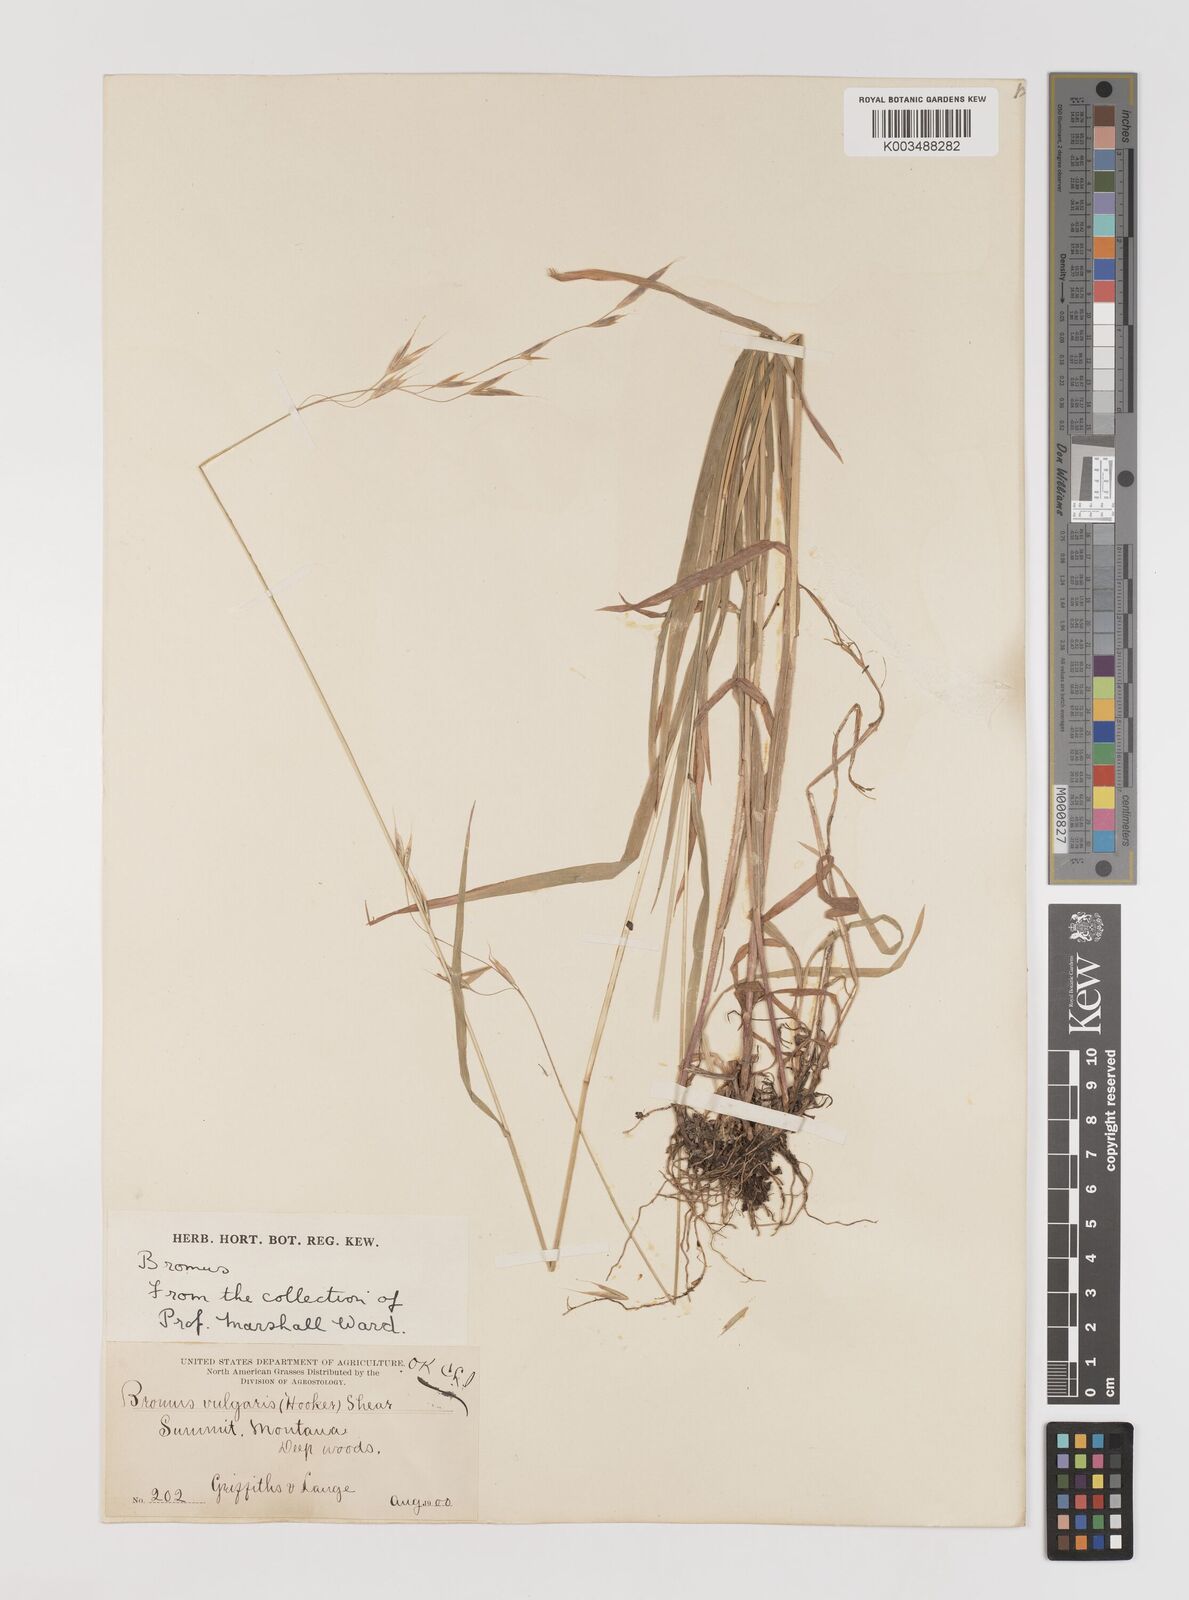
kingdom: Plantae
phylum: Tracheophyta
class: Liliopsida
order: Poales
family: Poaceae
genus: Bromus
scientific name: Bromus vulgaris
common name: Columbia brome
